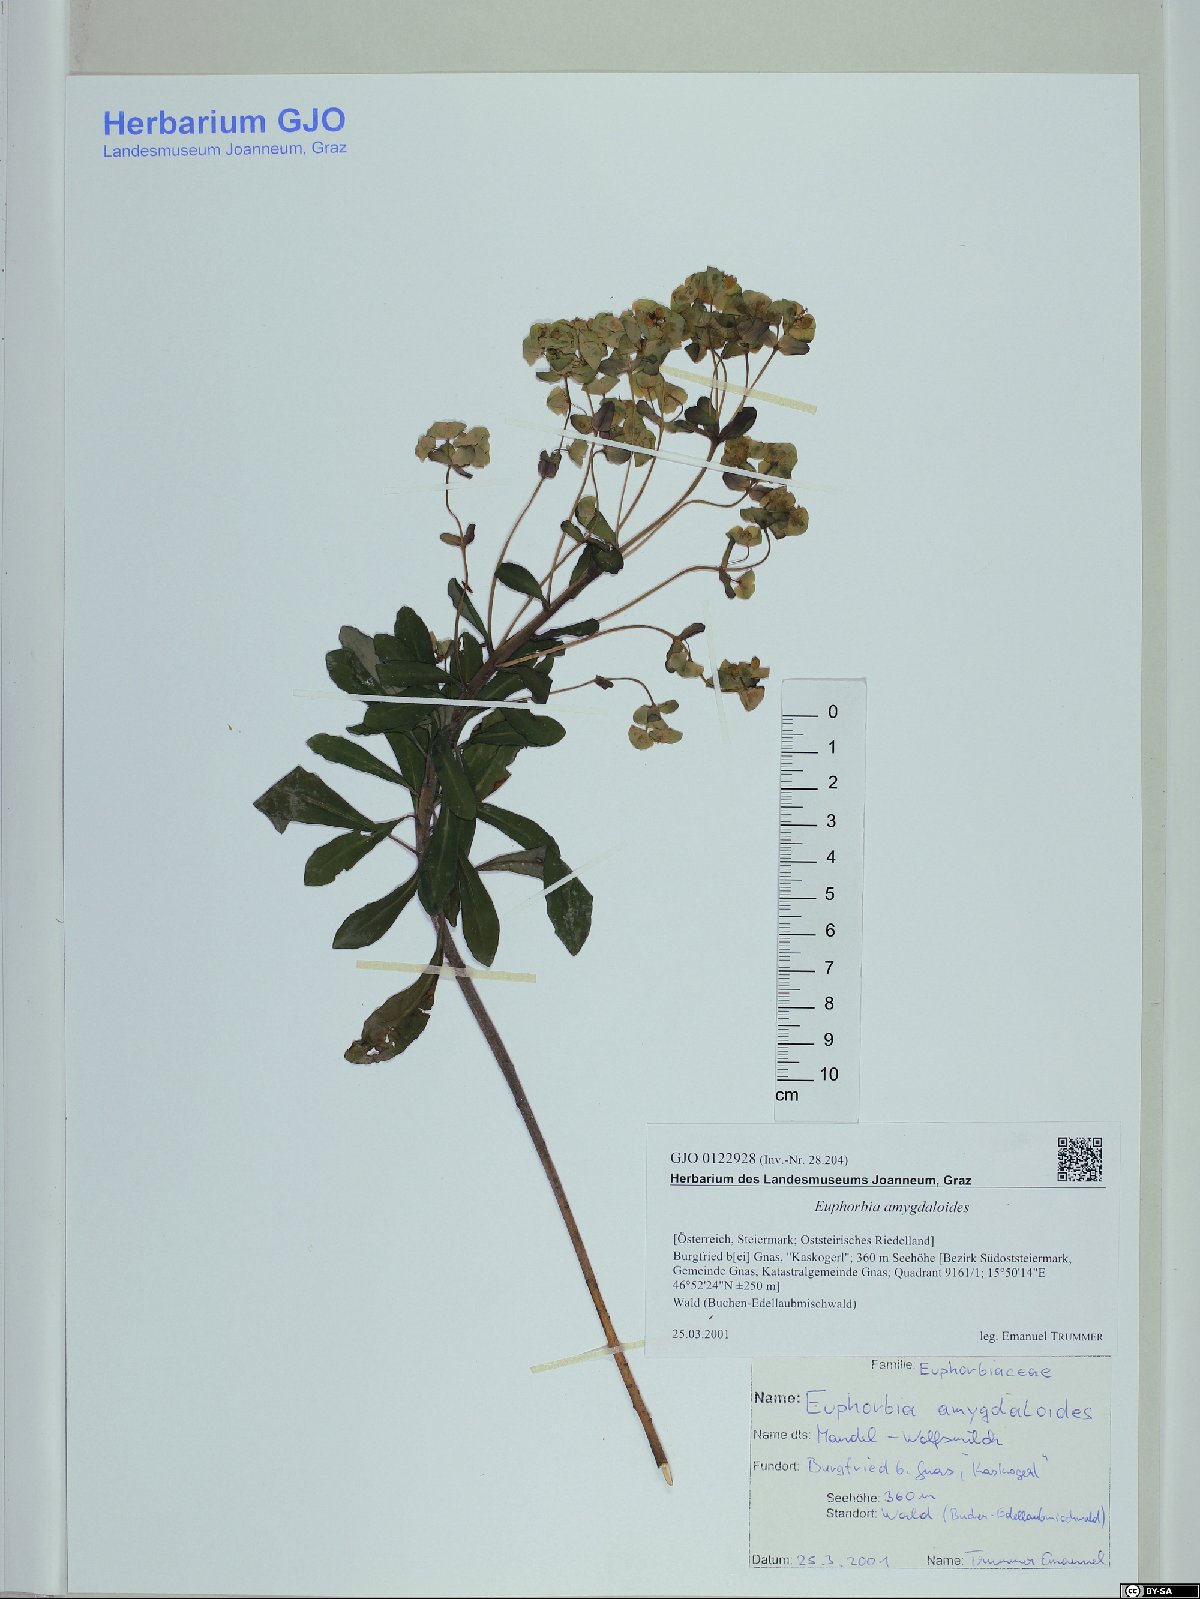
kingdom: Plantae
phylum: Tracheophyta
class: Magnoliopsida
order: Malpighiales
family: Euphorbiaceae
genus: Euphorbia
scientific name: Euphorbia amygdaloides
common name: Wood spurge
